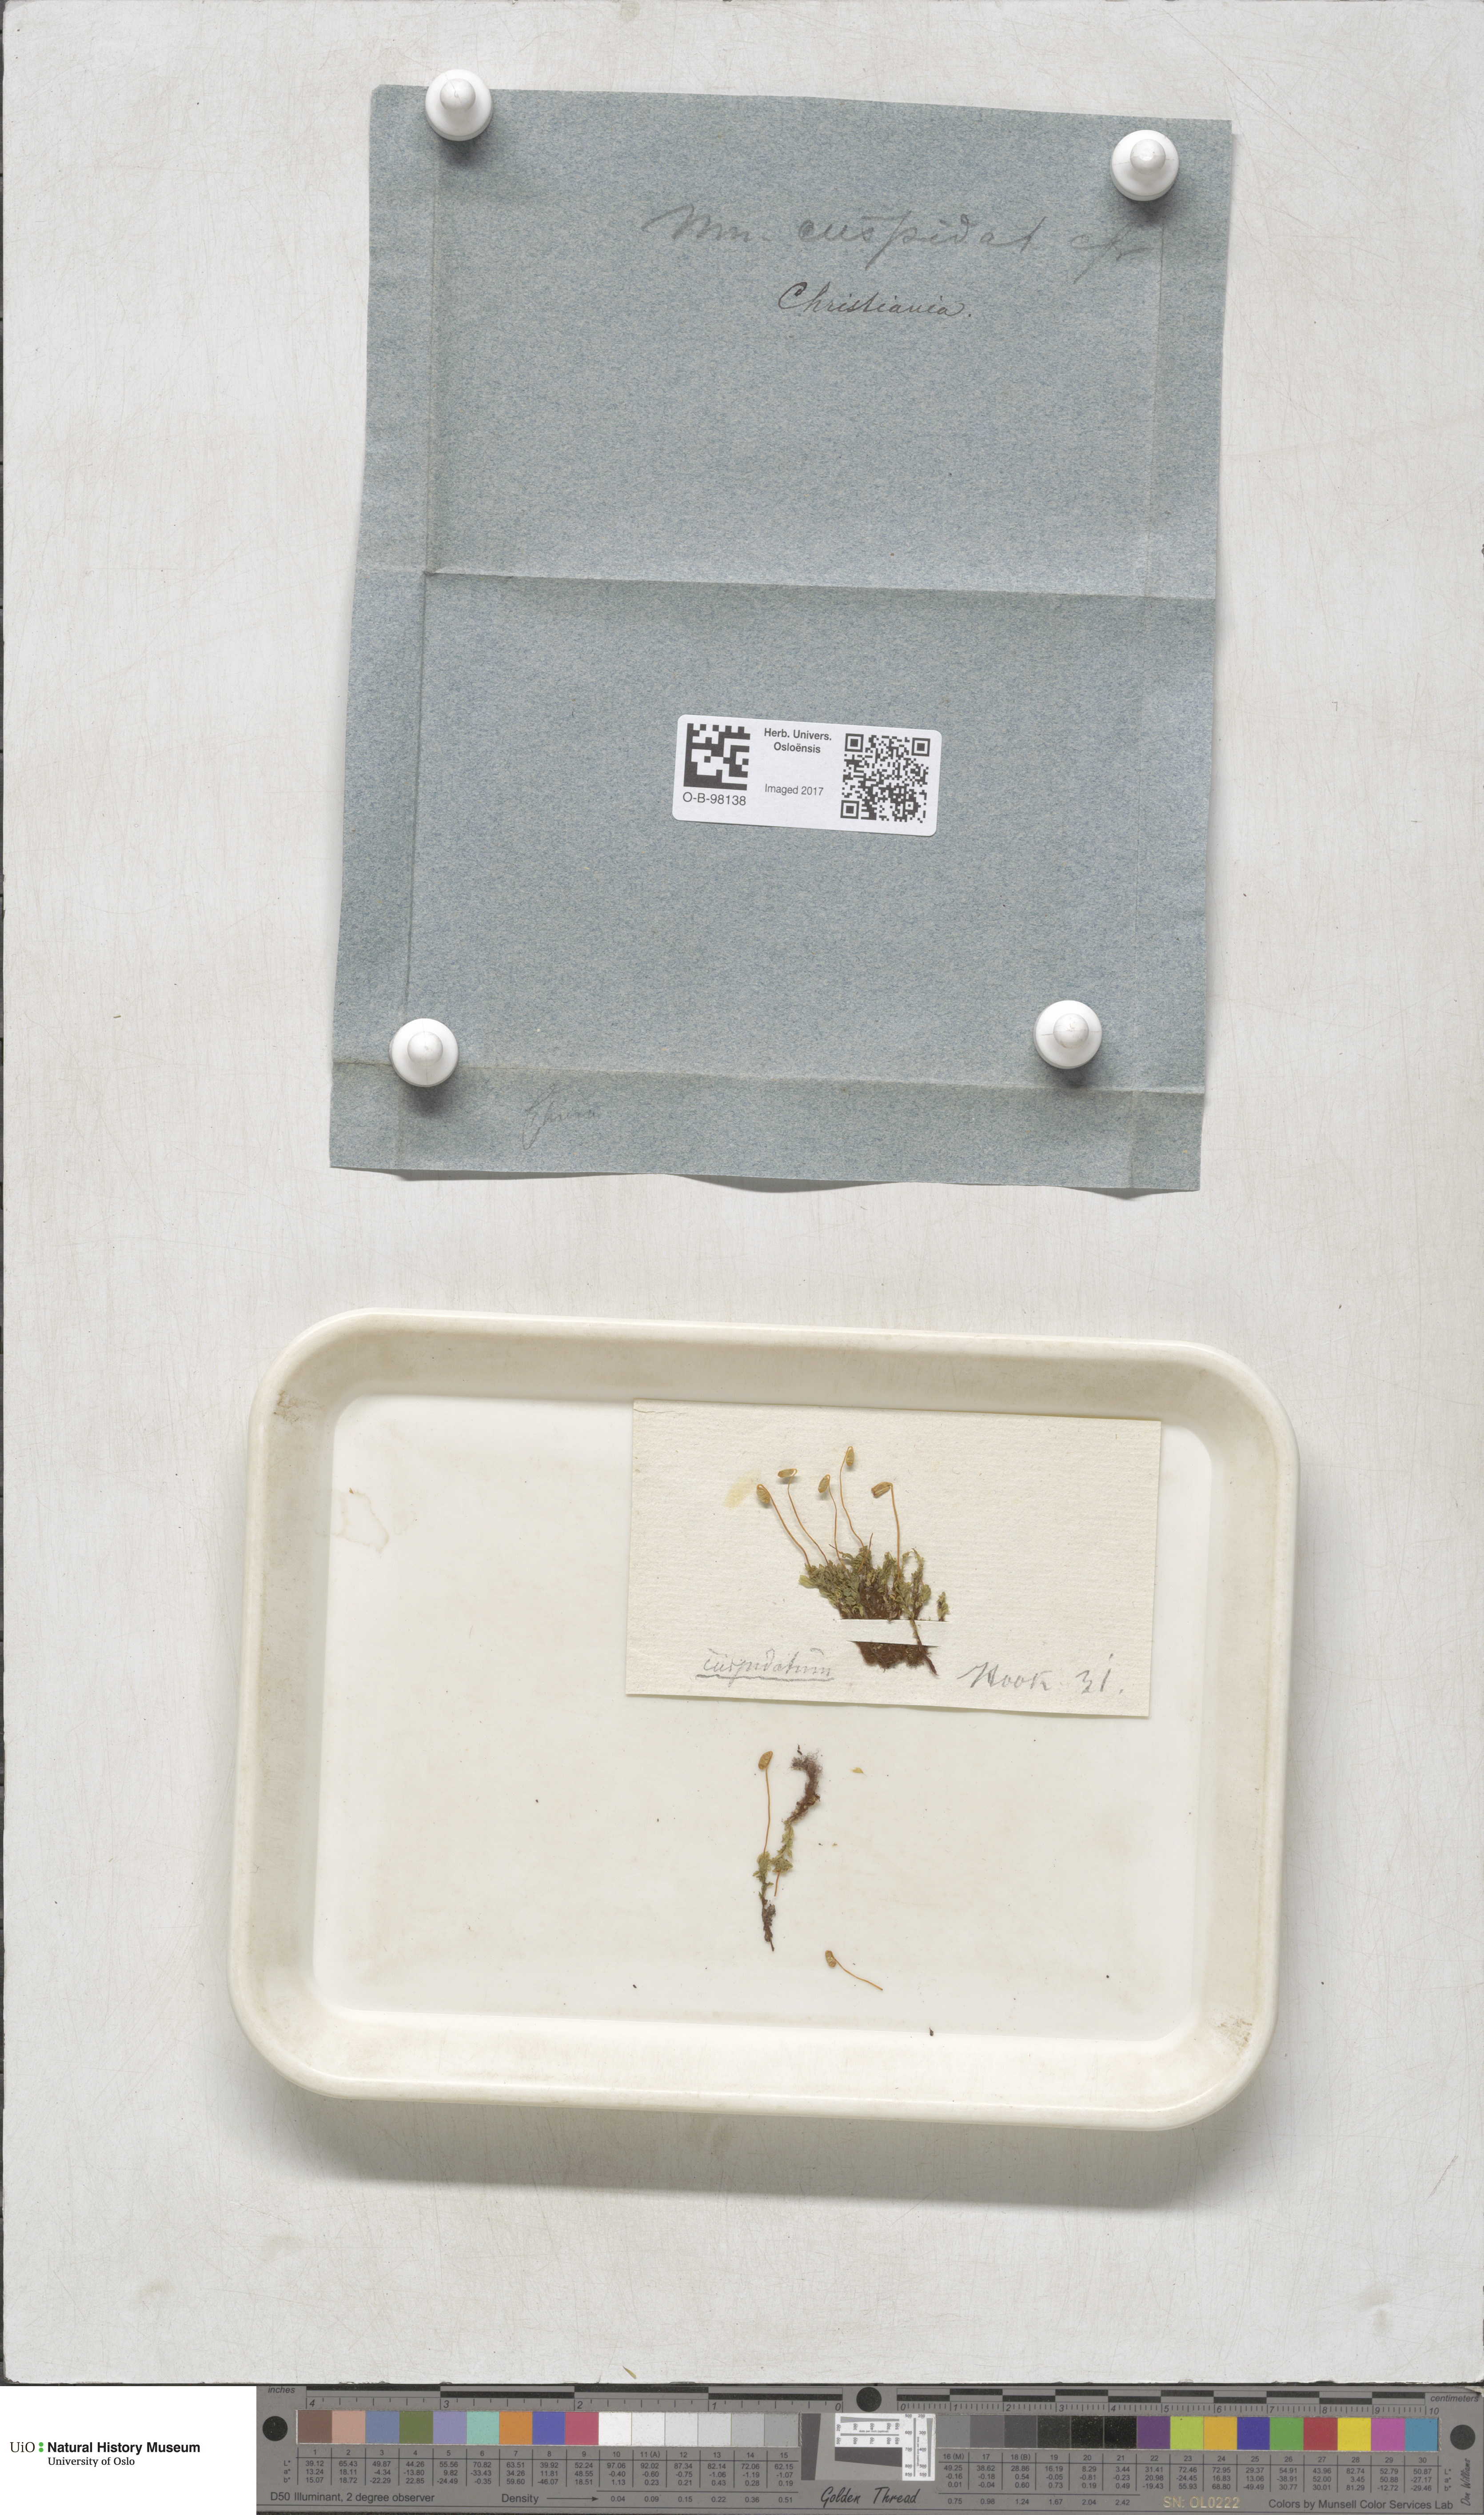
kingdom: Plantae
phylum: Bryophyta
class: Bryopsida
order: Bryales
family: Mniaceae
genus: Plagiomnium
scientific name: Plagiomnium cuspidatum
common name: Woodsy leafy moss
